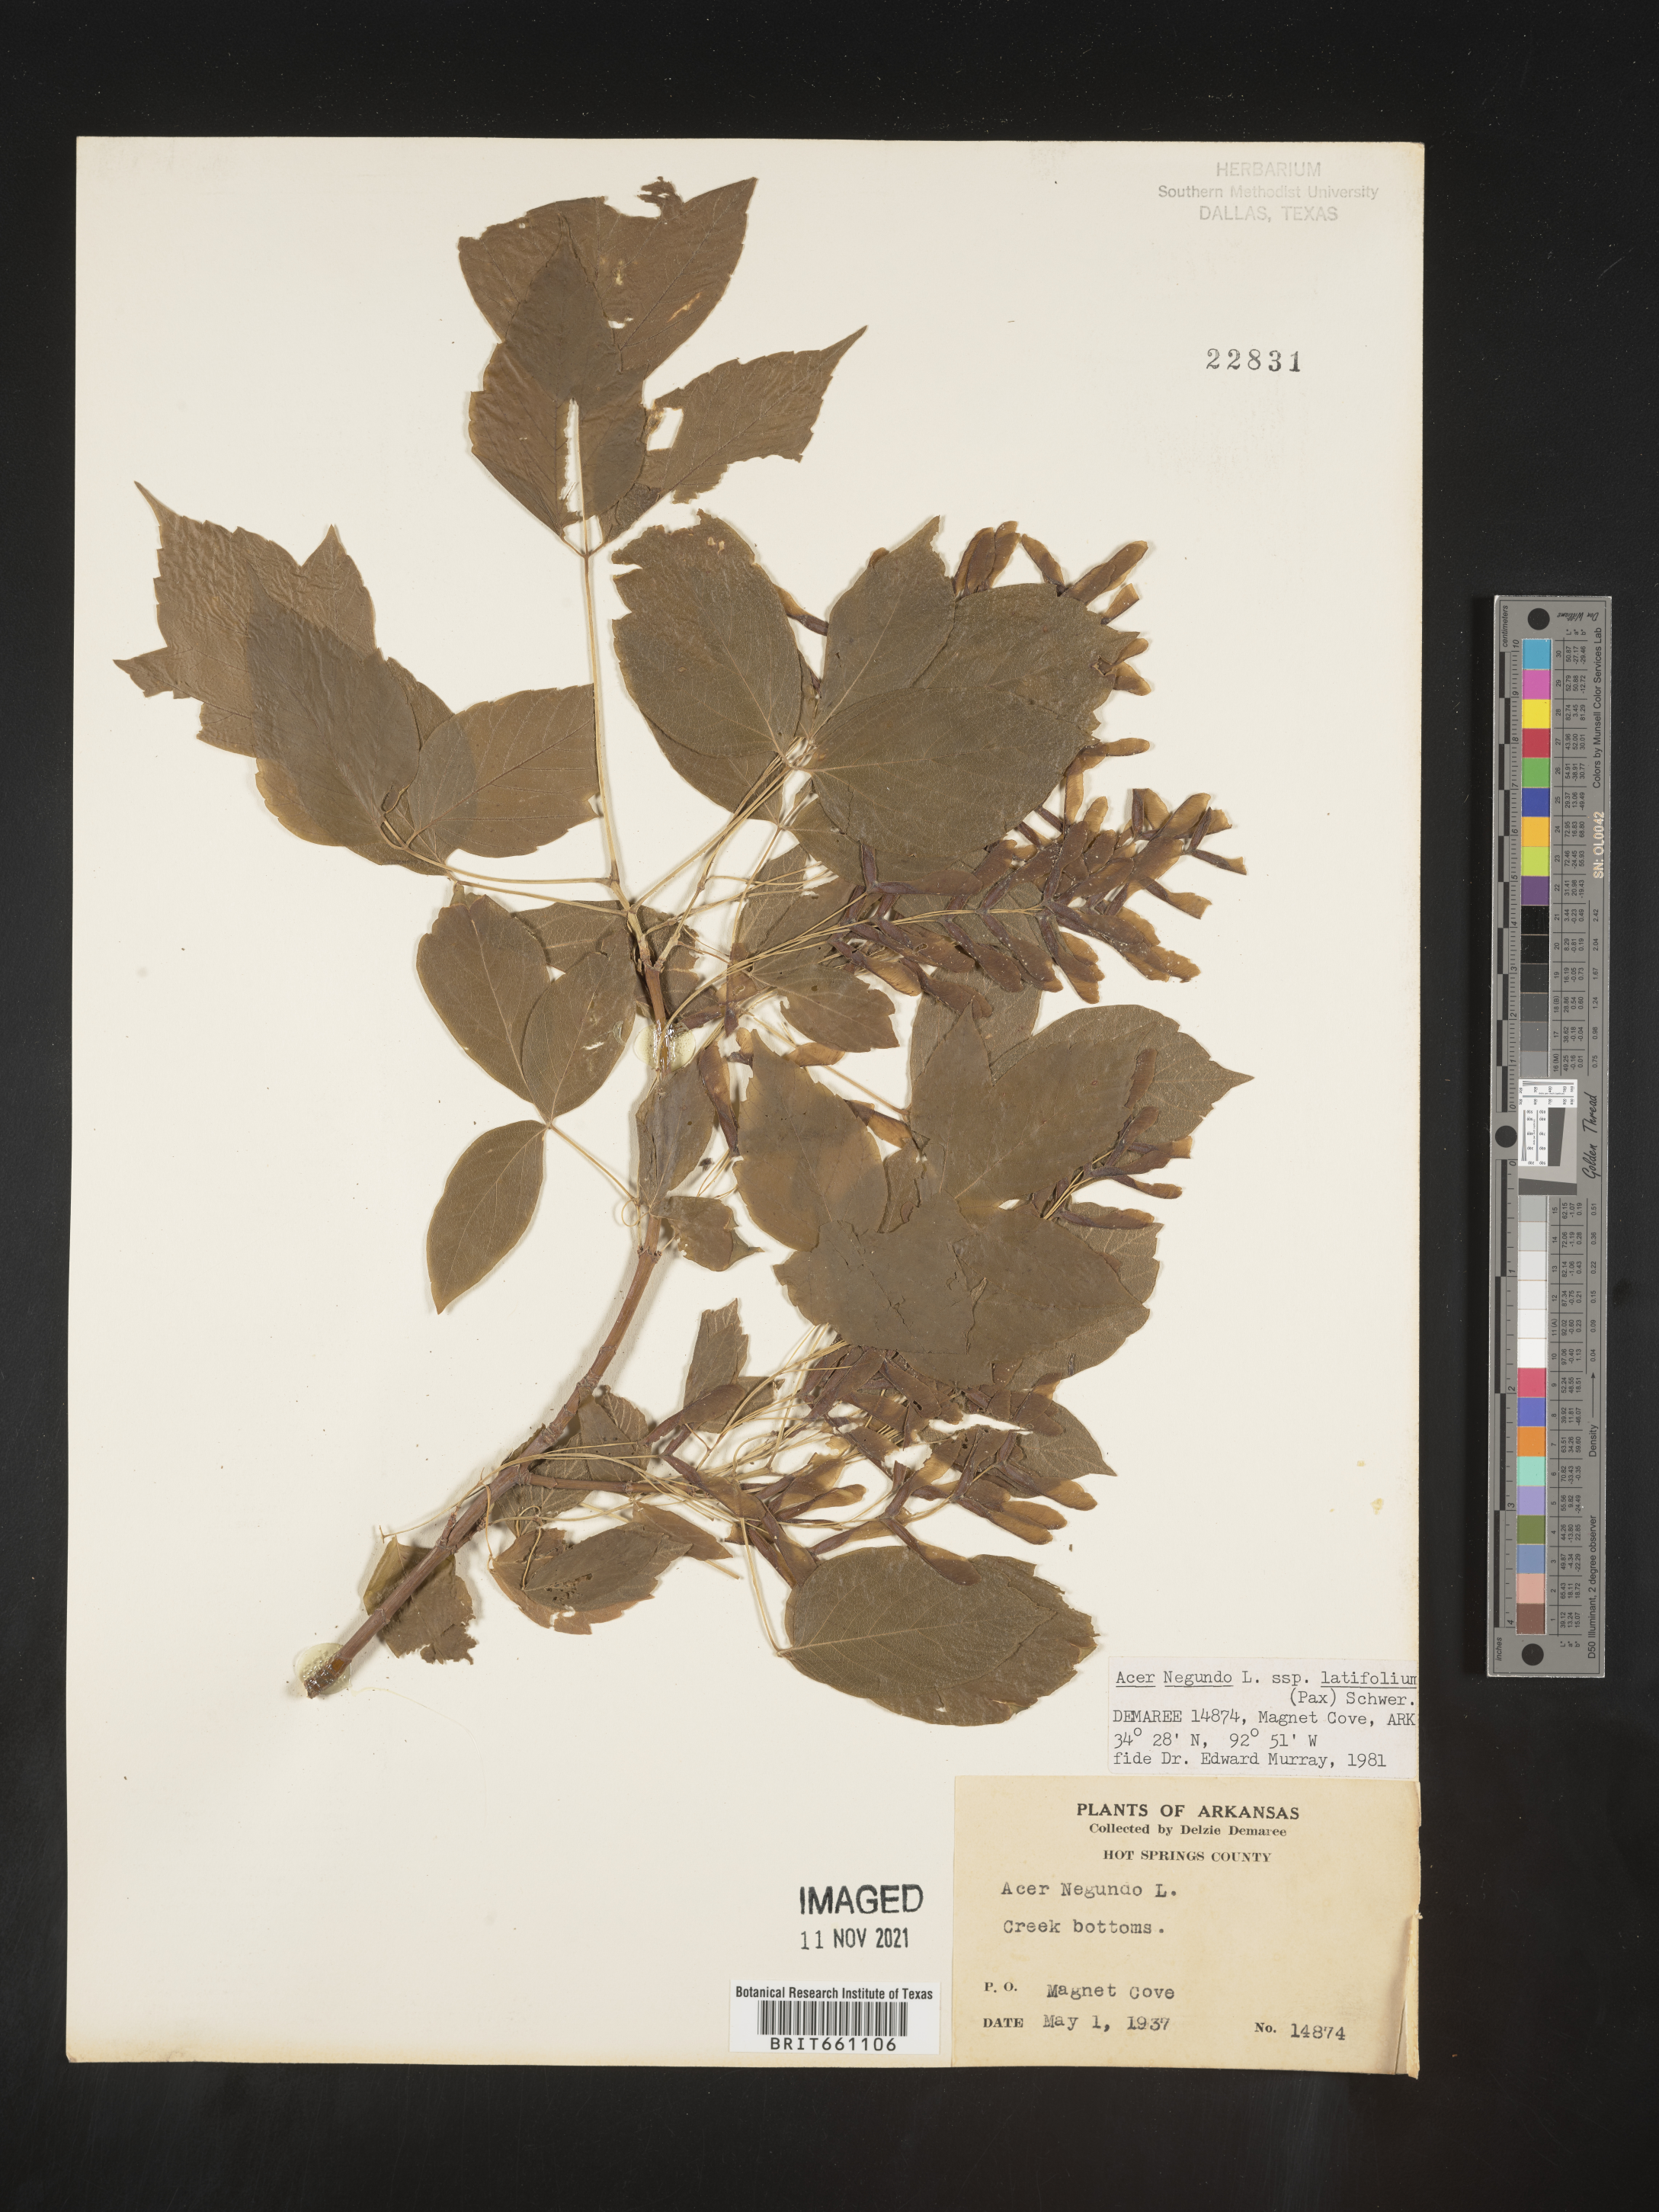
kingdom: Plantae
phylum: Tracheophyta
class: Magnoliopsida
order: Sapindales
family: Sapindaceae
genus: Acer
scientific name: Acer negundo
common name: Ashleaf maple
